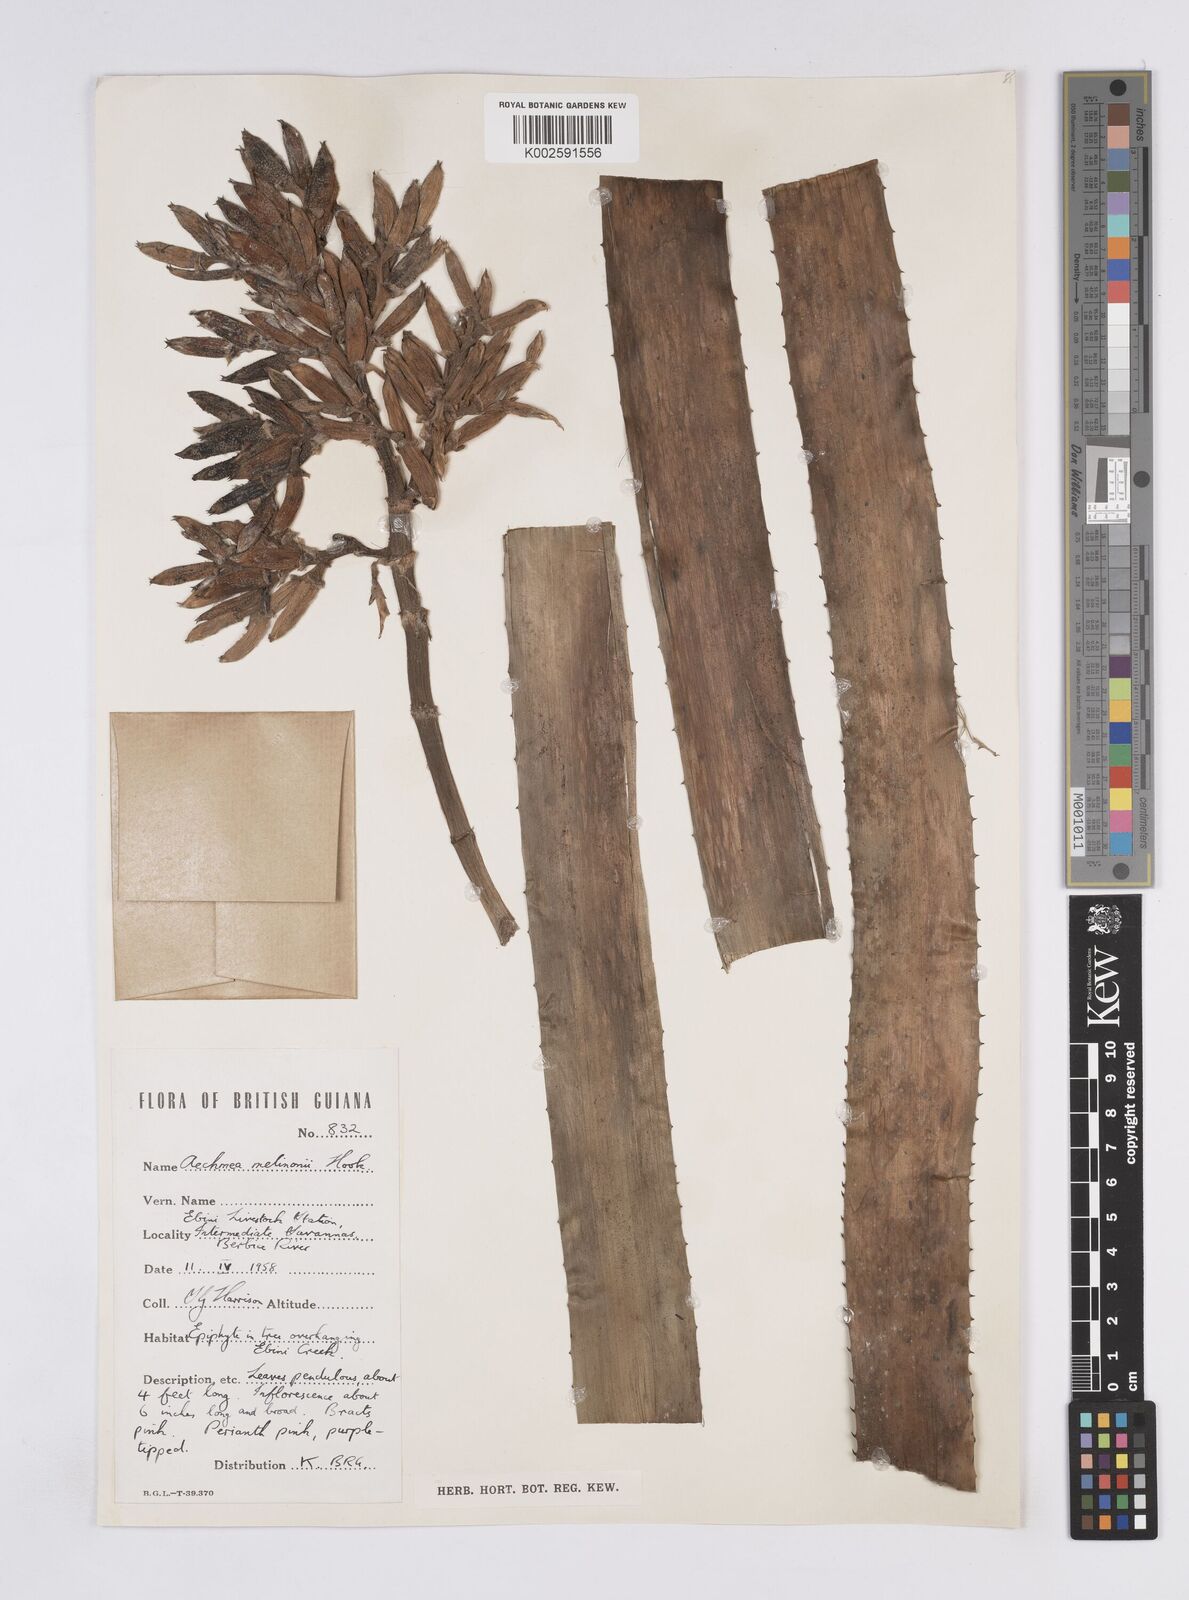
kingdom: Plantae
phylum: Tracheophyta
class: Liliopsida
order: Poales
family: Bromeliaceae
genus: Aechmea
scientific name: Aechmea melinonii
